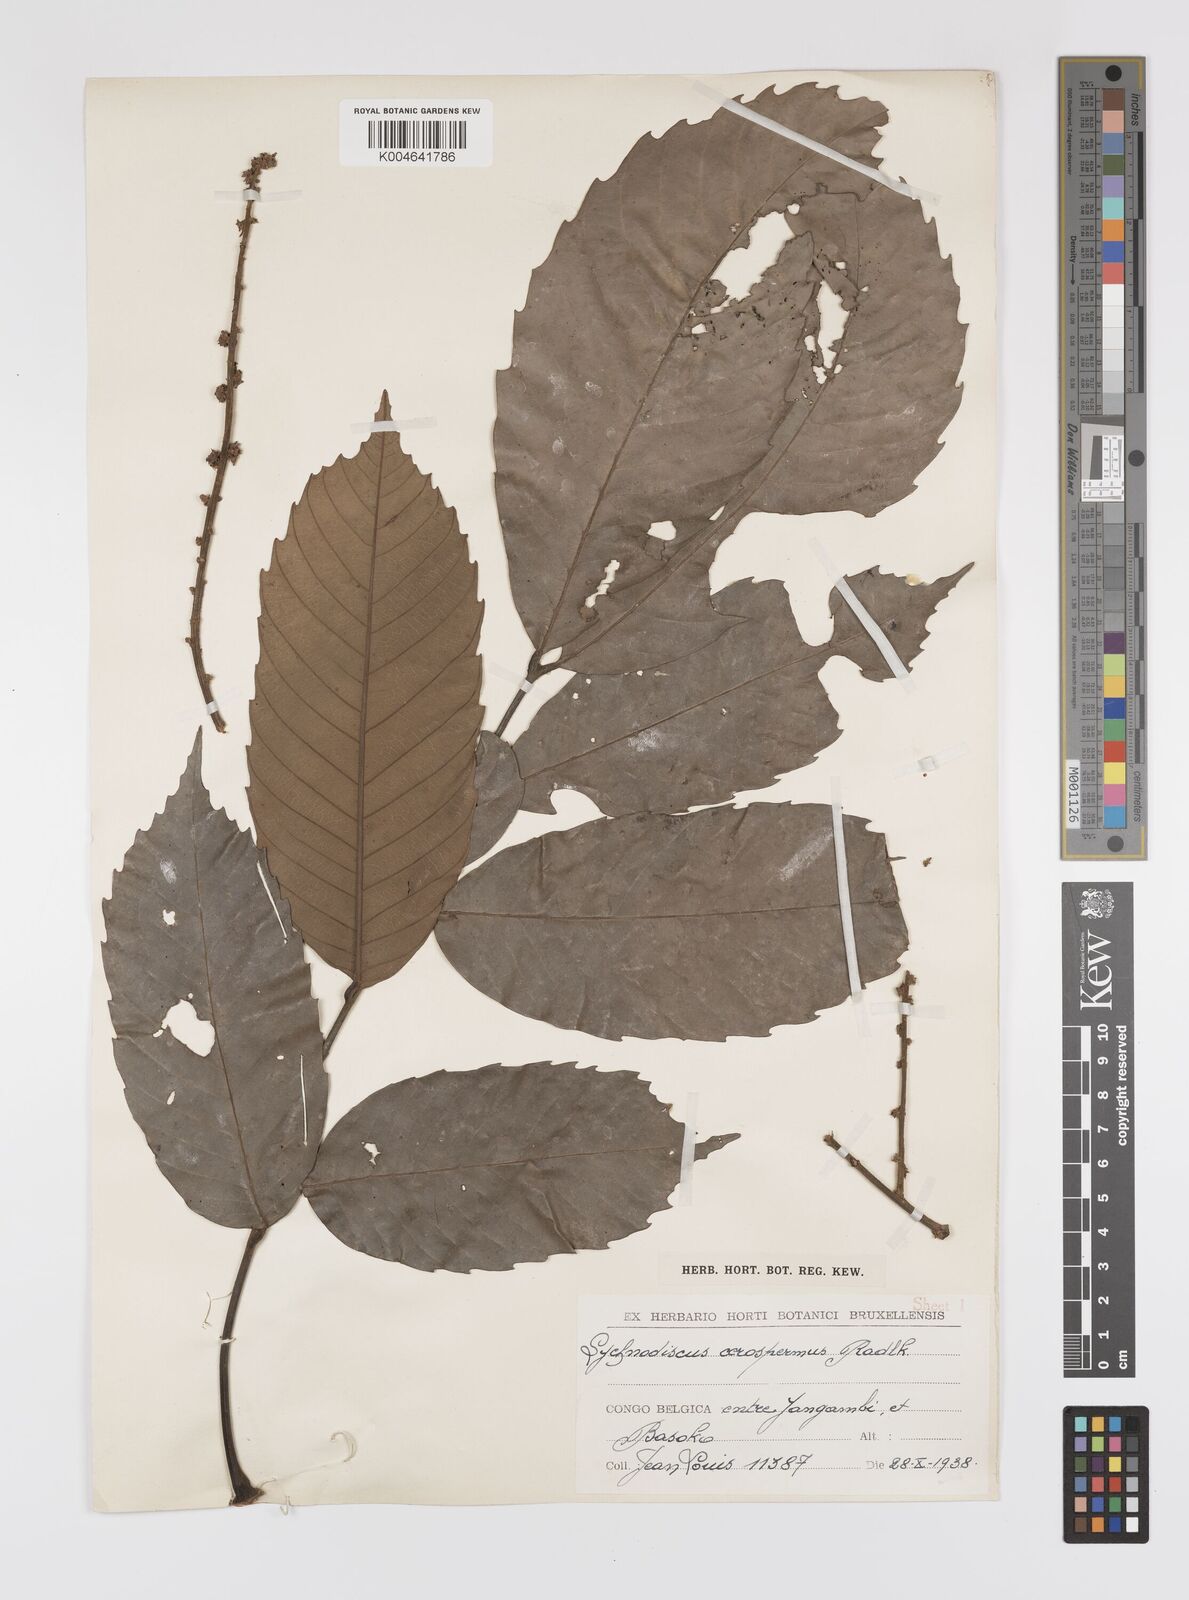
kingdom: Plantae
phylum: Tracheophyta
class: Magnoliopsida
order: Sapindales
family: Sapindaceae
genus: Lychnodiscus
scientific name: Lychnodiscus cerospermus
